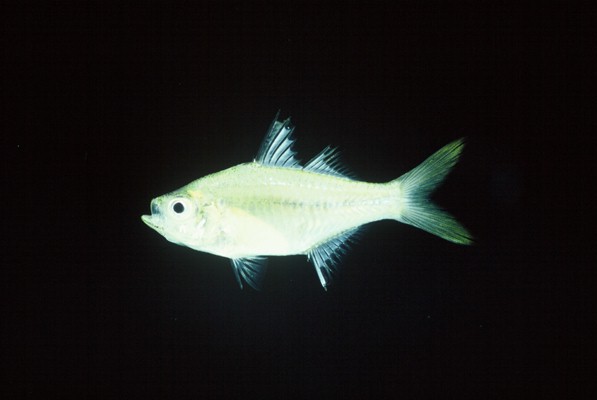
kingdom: Animalia
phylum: Chordata
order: Perciformes
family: Ambassidae
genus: Ambassis
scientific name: Ambassis gymnocephalus
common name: Bald glassy
